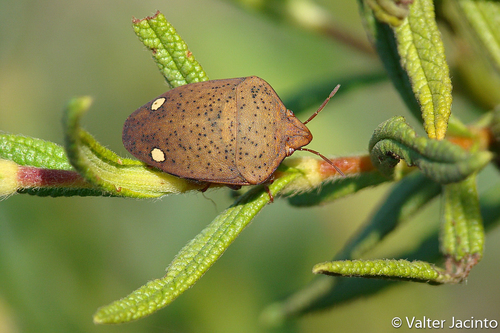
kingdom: Animalia
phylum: Arthropoda
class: Insecta
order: Hemiptera
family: Scutelleridae
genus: Solenosthedium
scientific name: Solenosthedium bilunatum
